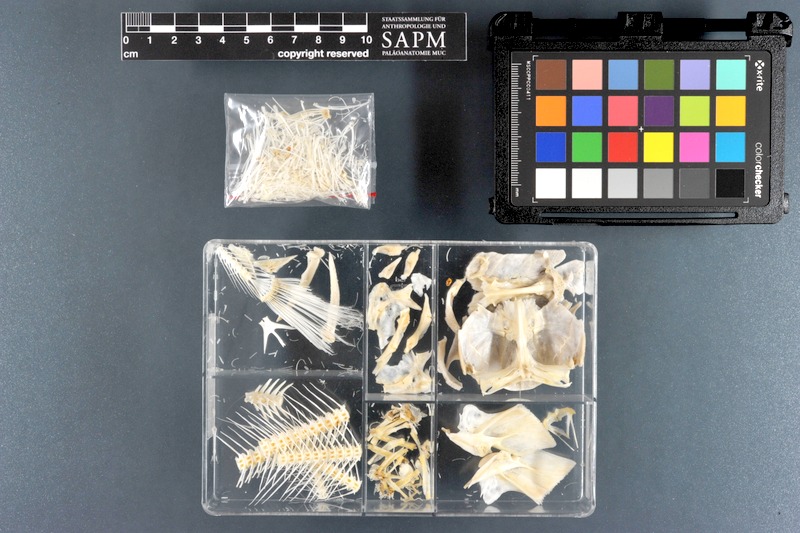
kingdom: Animalia
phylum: Chordata
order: Siluriformes
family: Clariidae
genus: Clarias
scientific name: Clarias meladerma
